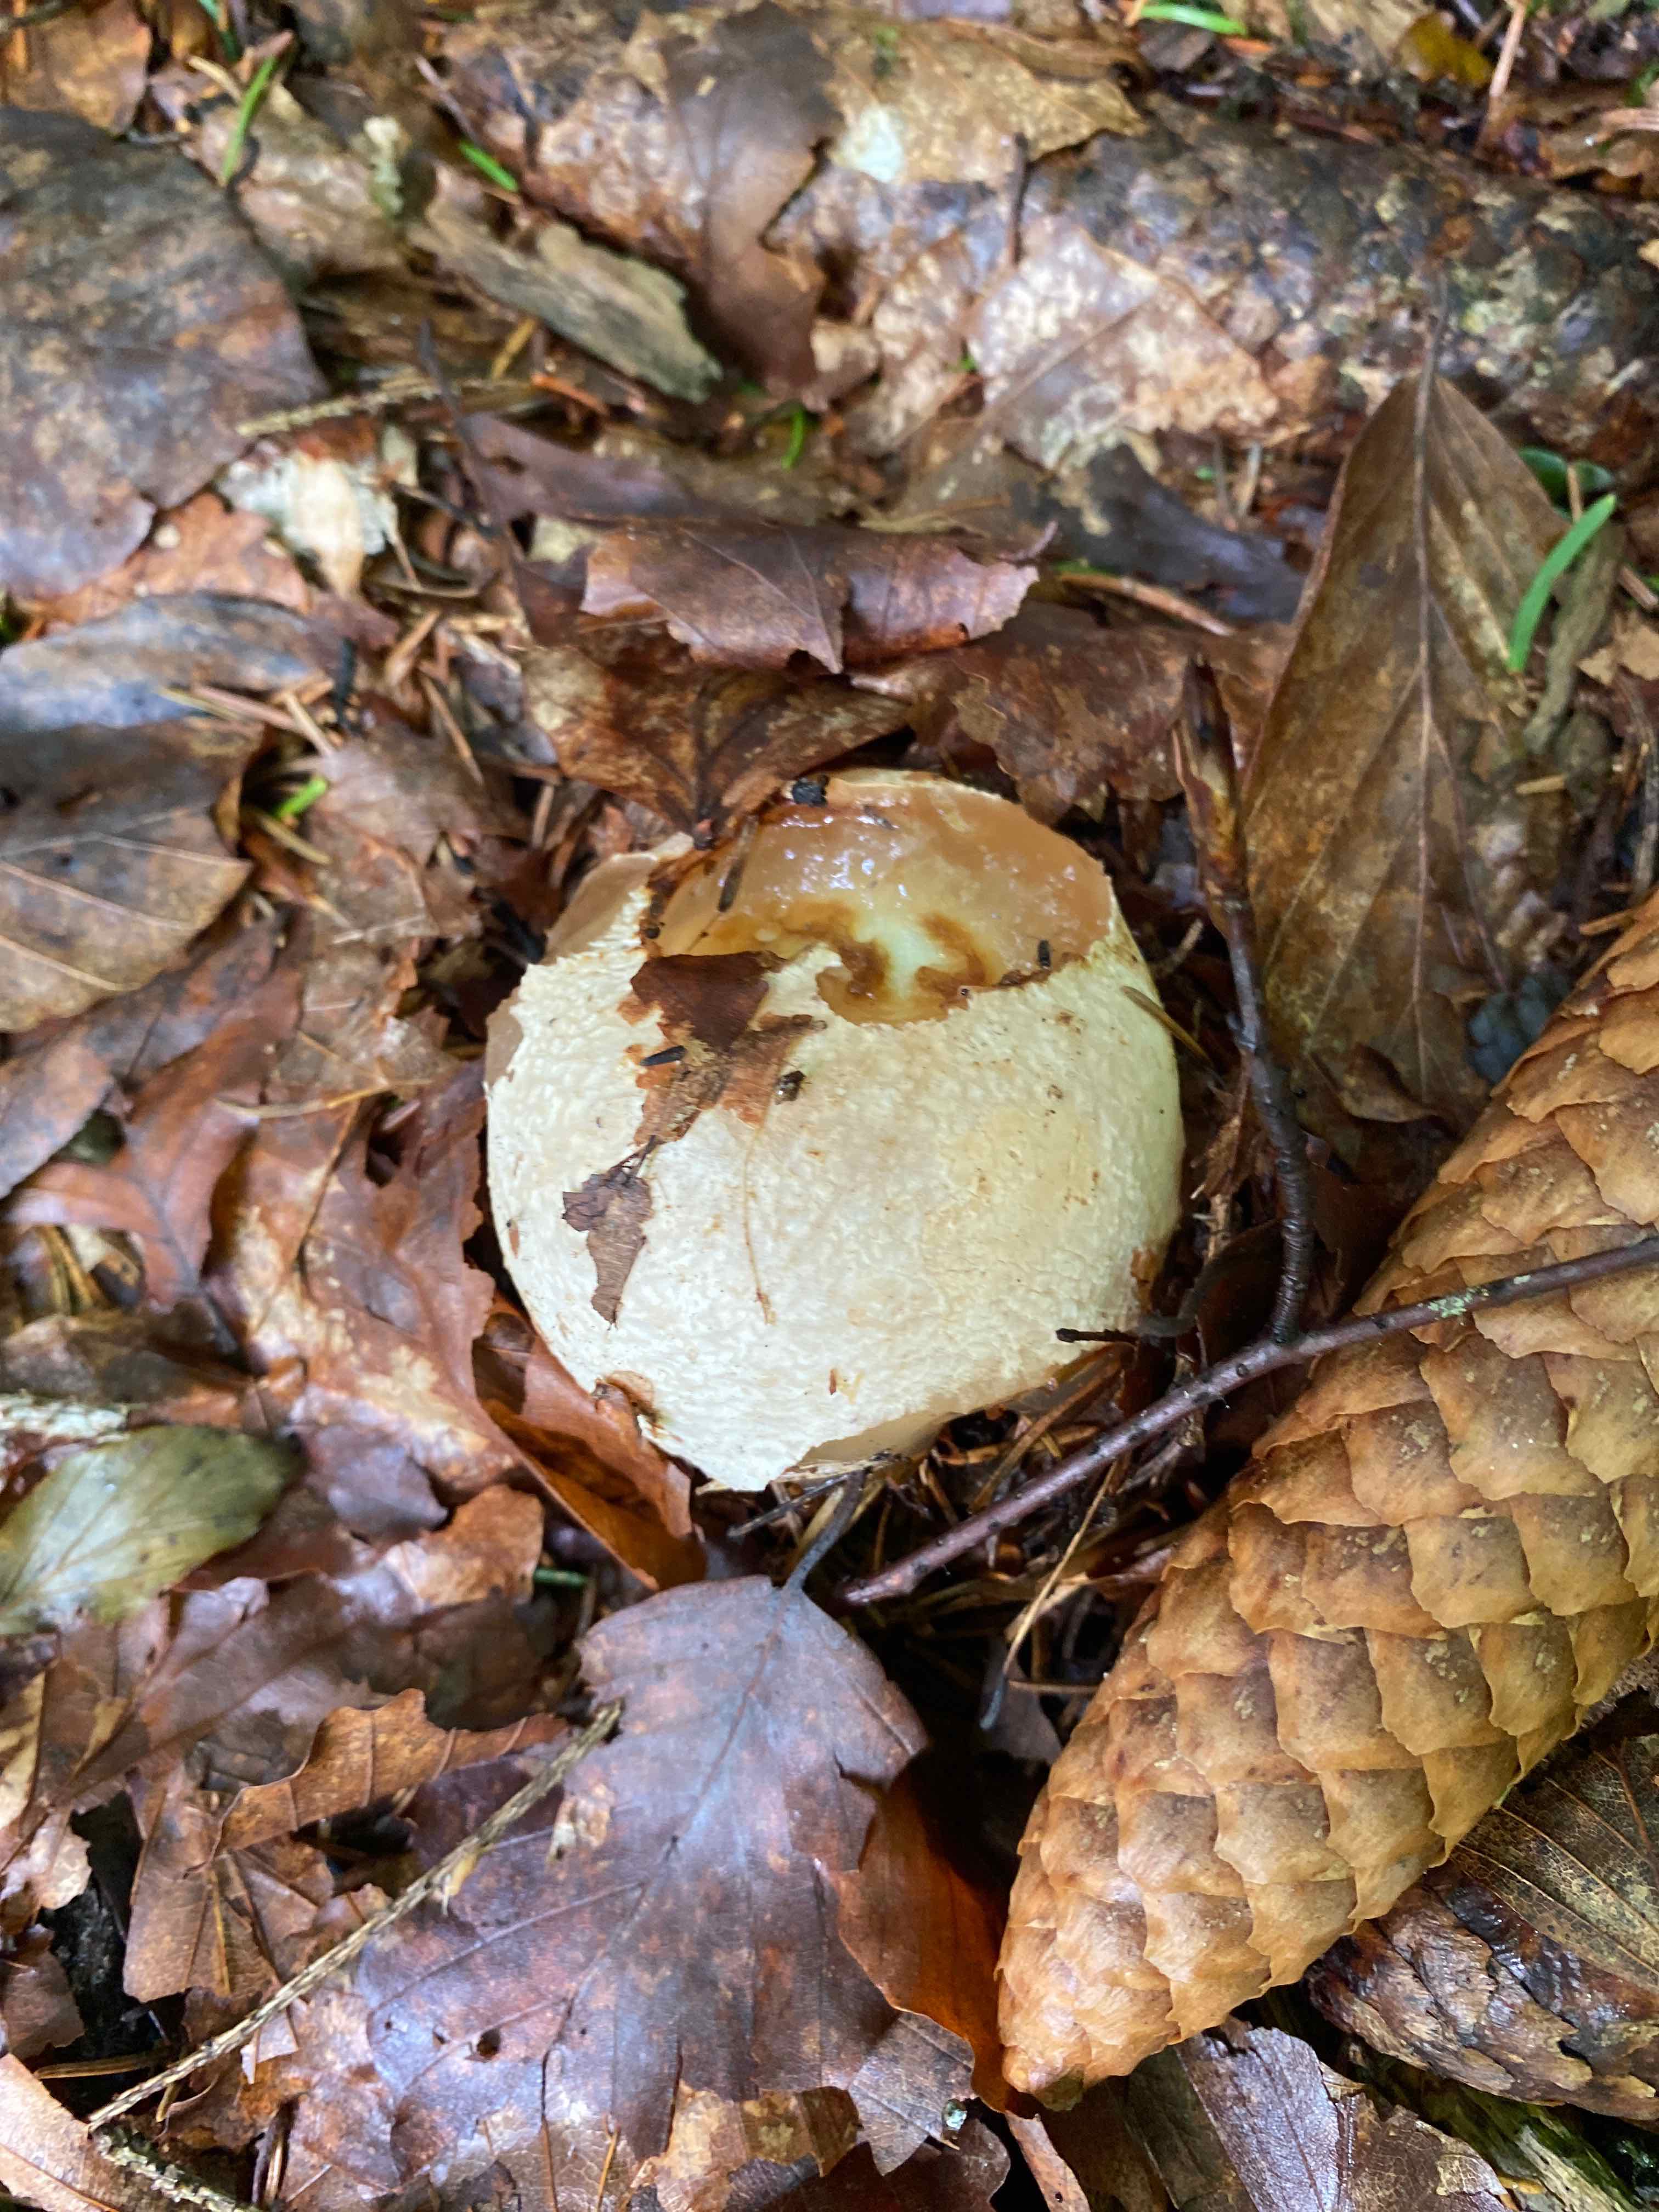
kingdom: Fungi
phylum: Basidiomycota
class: Agaricomycetes
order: Phallales
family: Phallaceae
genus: Phallus
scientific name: Phallus impudicus
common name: almindelig stinksvamp
